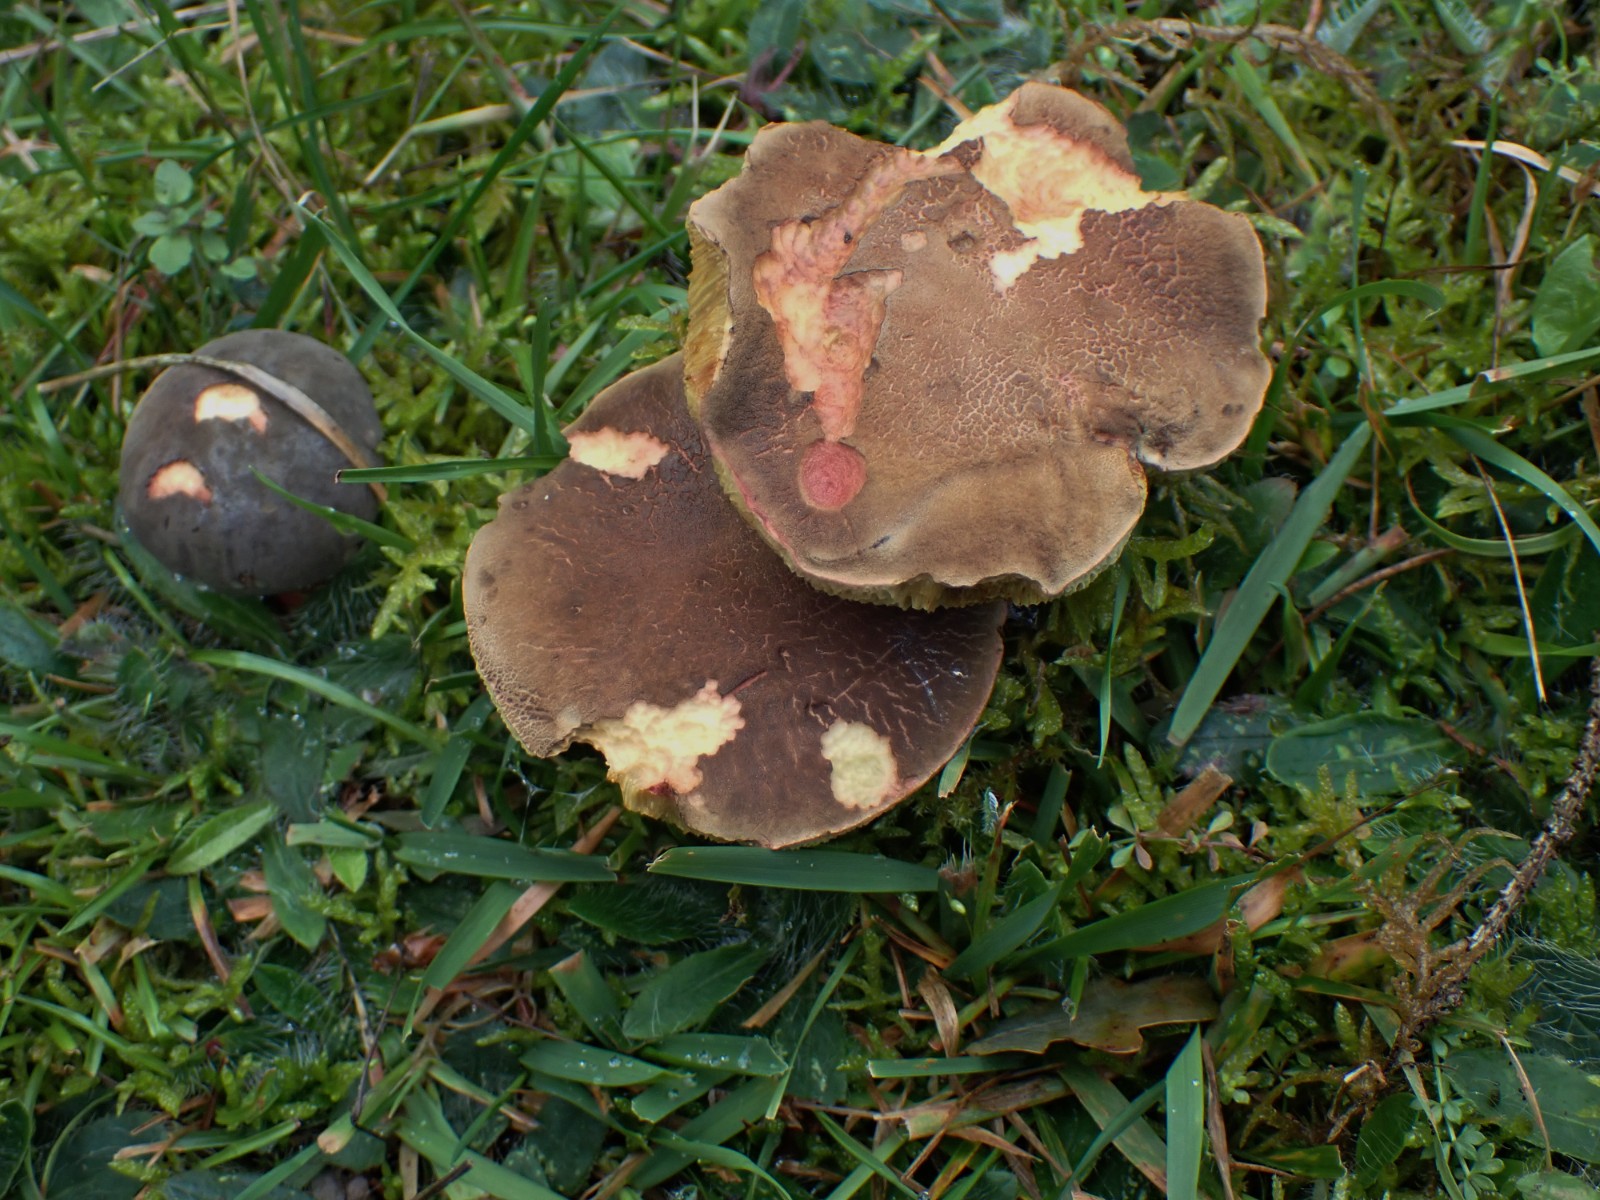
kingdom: Fungi
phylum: Basidiomycota
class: Agaricomycetes
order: Boletales
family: Boletaceae
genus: Xerocomellus
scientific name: Xerocomellus
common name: dværgrørhat
